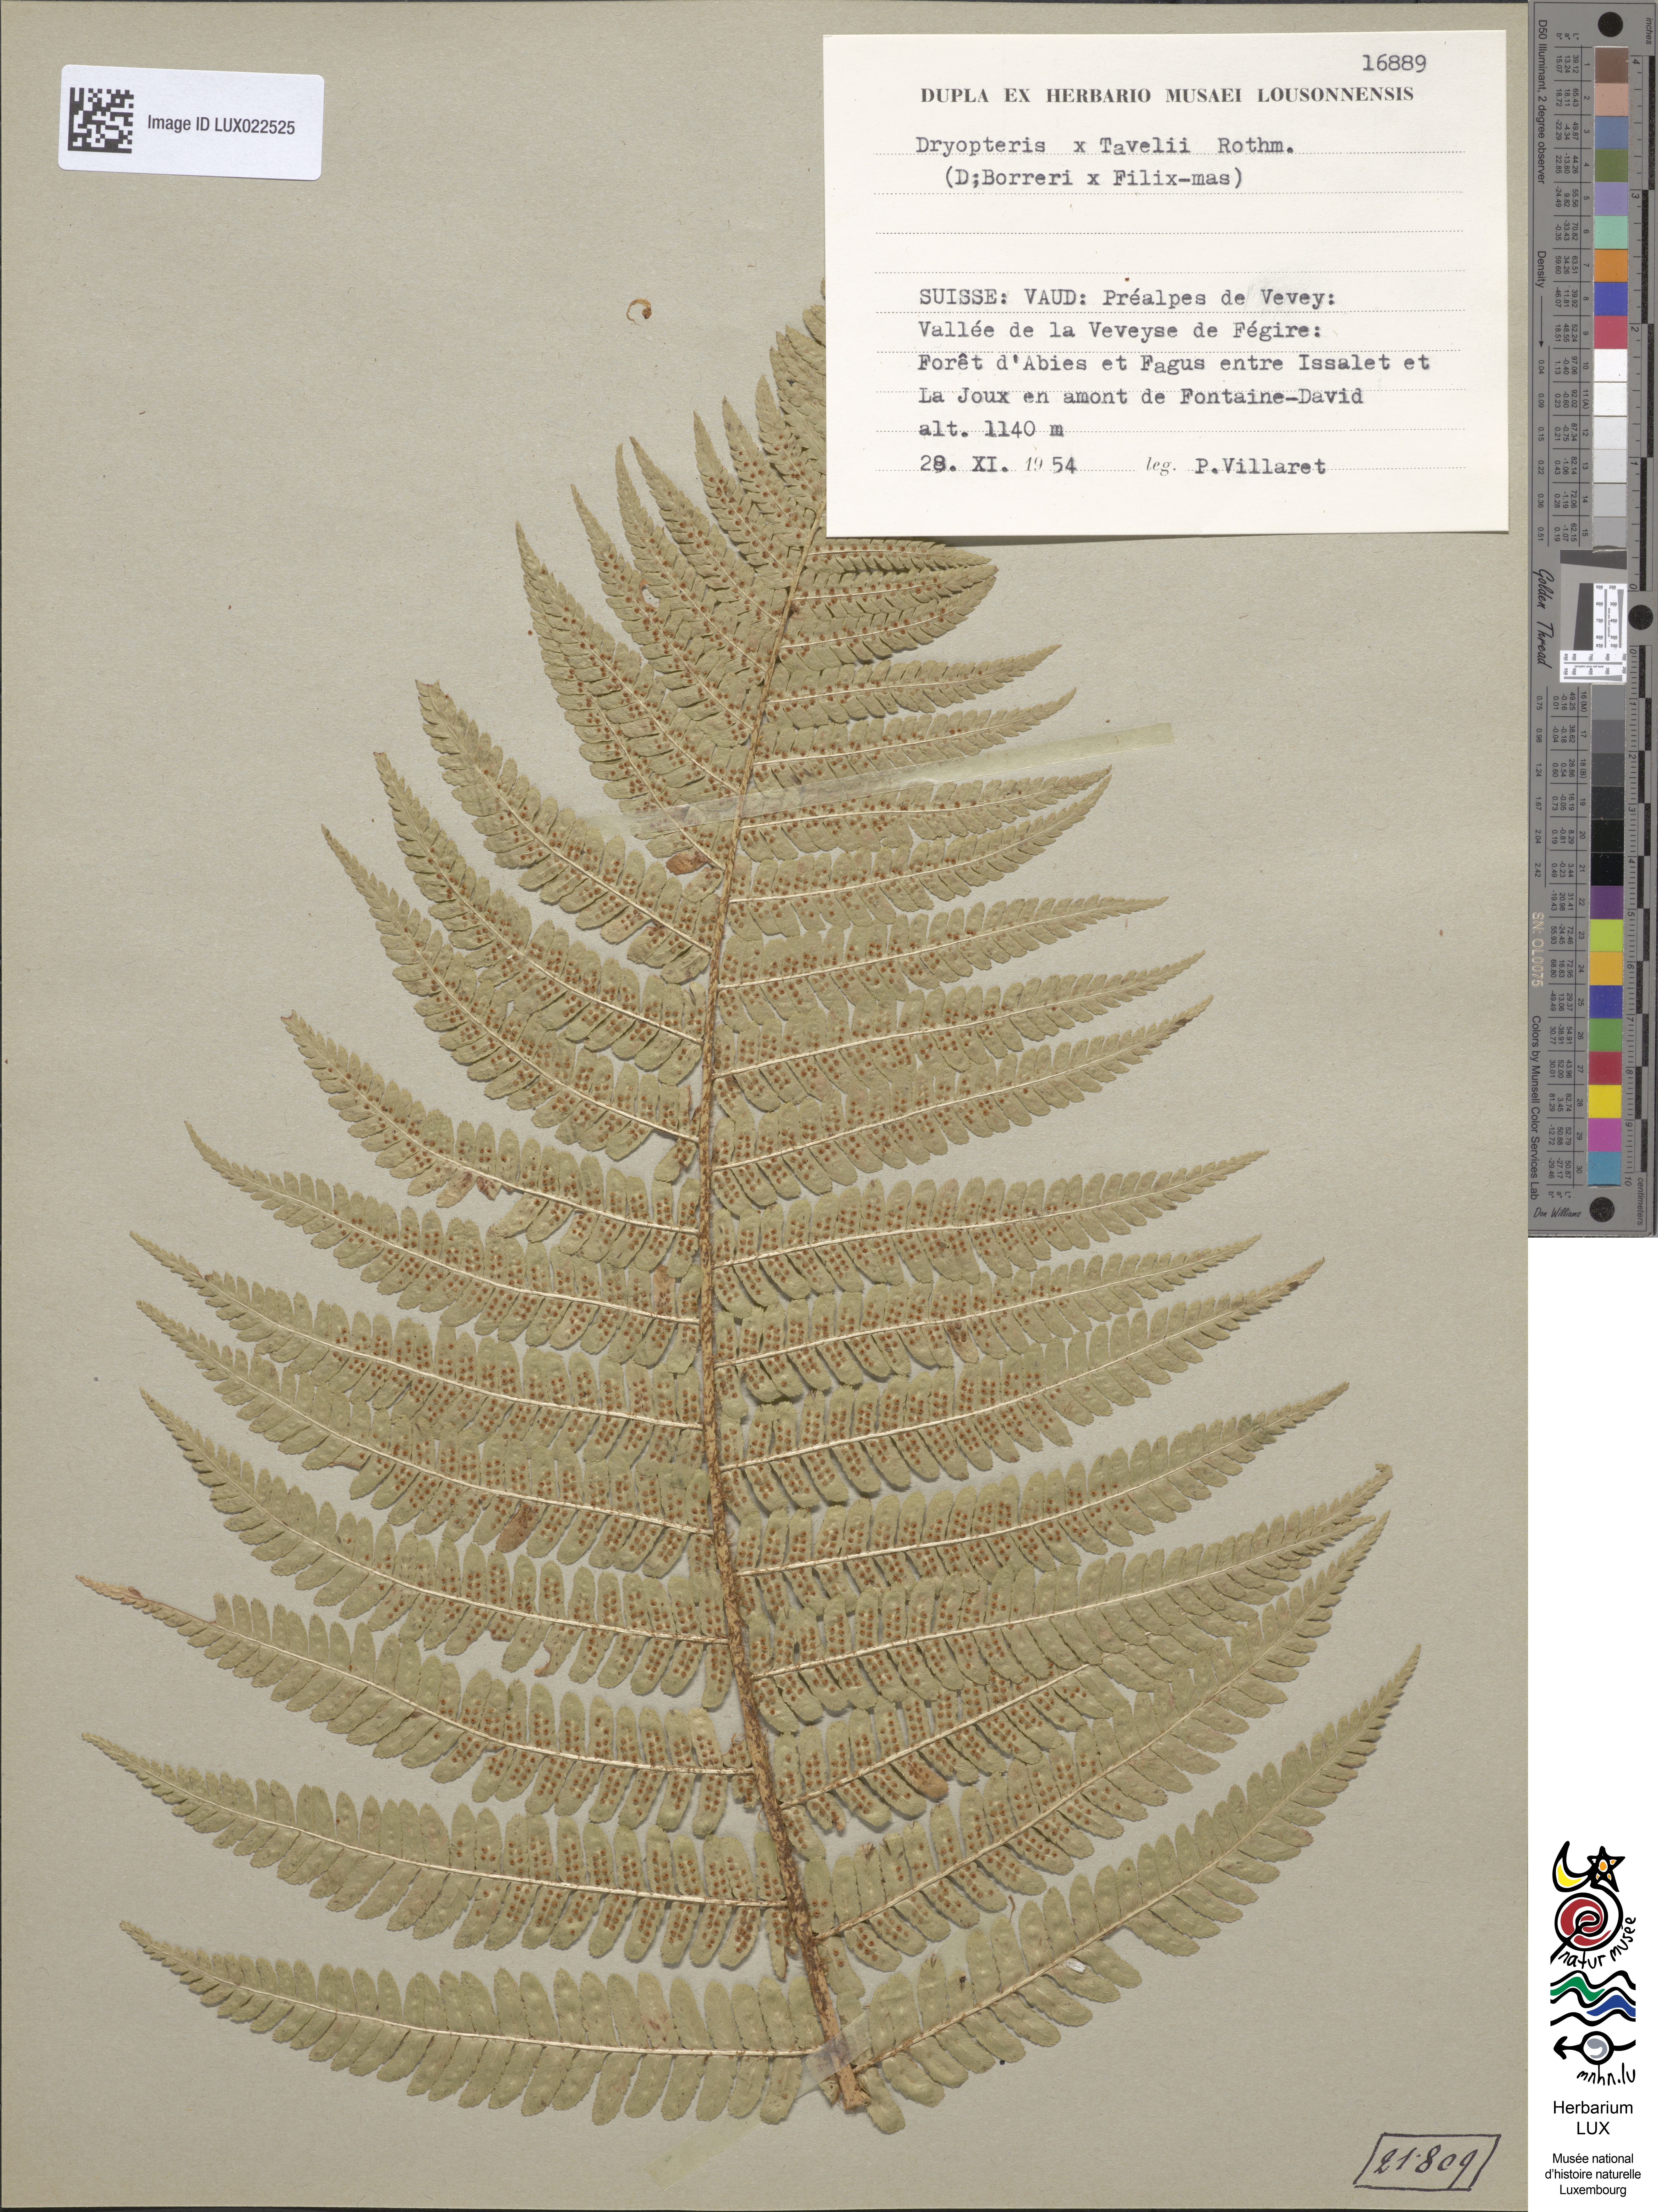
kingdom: Plantae
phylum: Tracheophyta
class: Polypodiopsida
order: Polypodiales
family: Dryopteridaceae
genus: Dryopteris
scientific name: Dryopteris borreri
